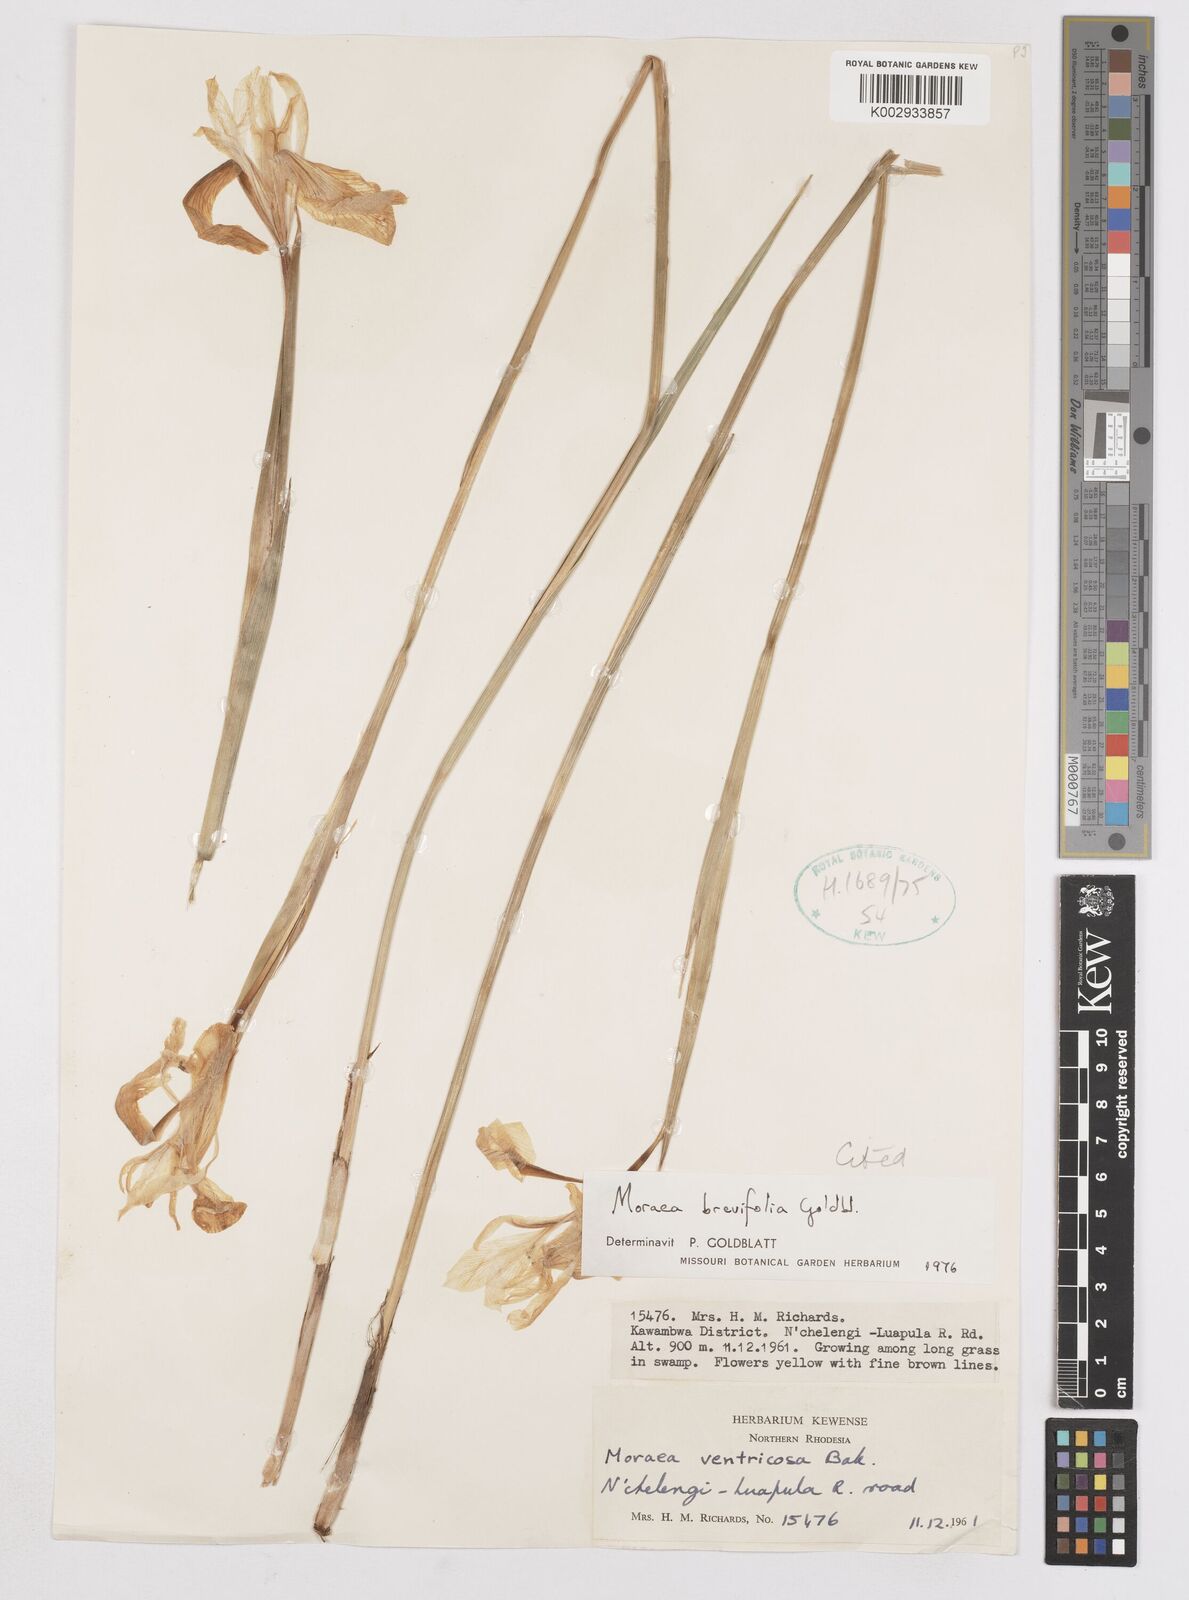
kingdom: Plantae
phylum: Tracheophyta
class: Liliopsida
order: Asparagales
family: Iridaceae
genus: Moraea
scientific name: Moraea brevifolia
